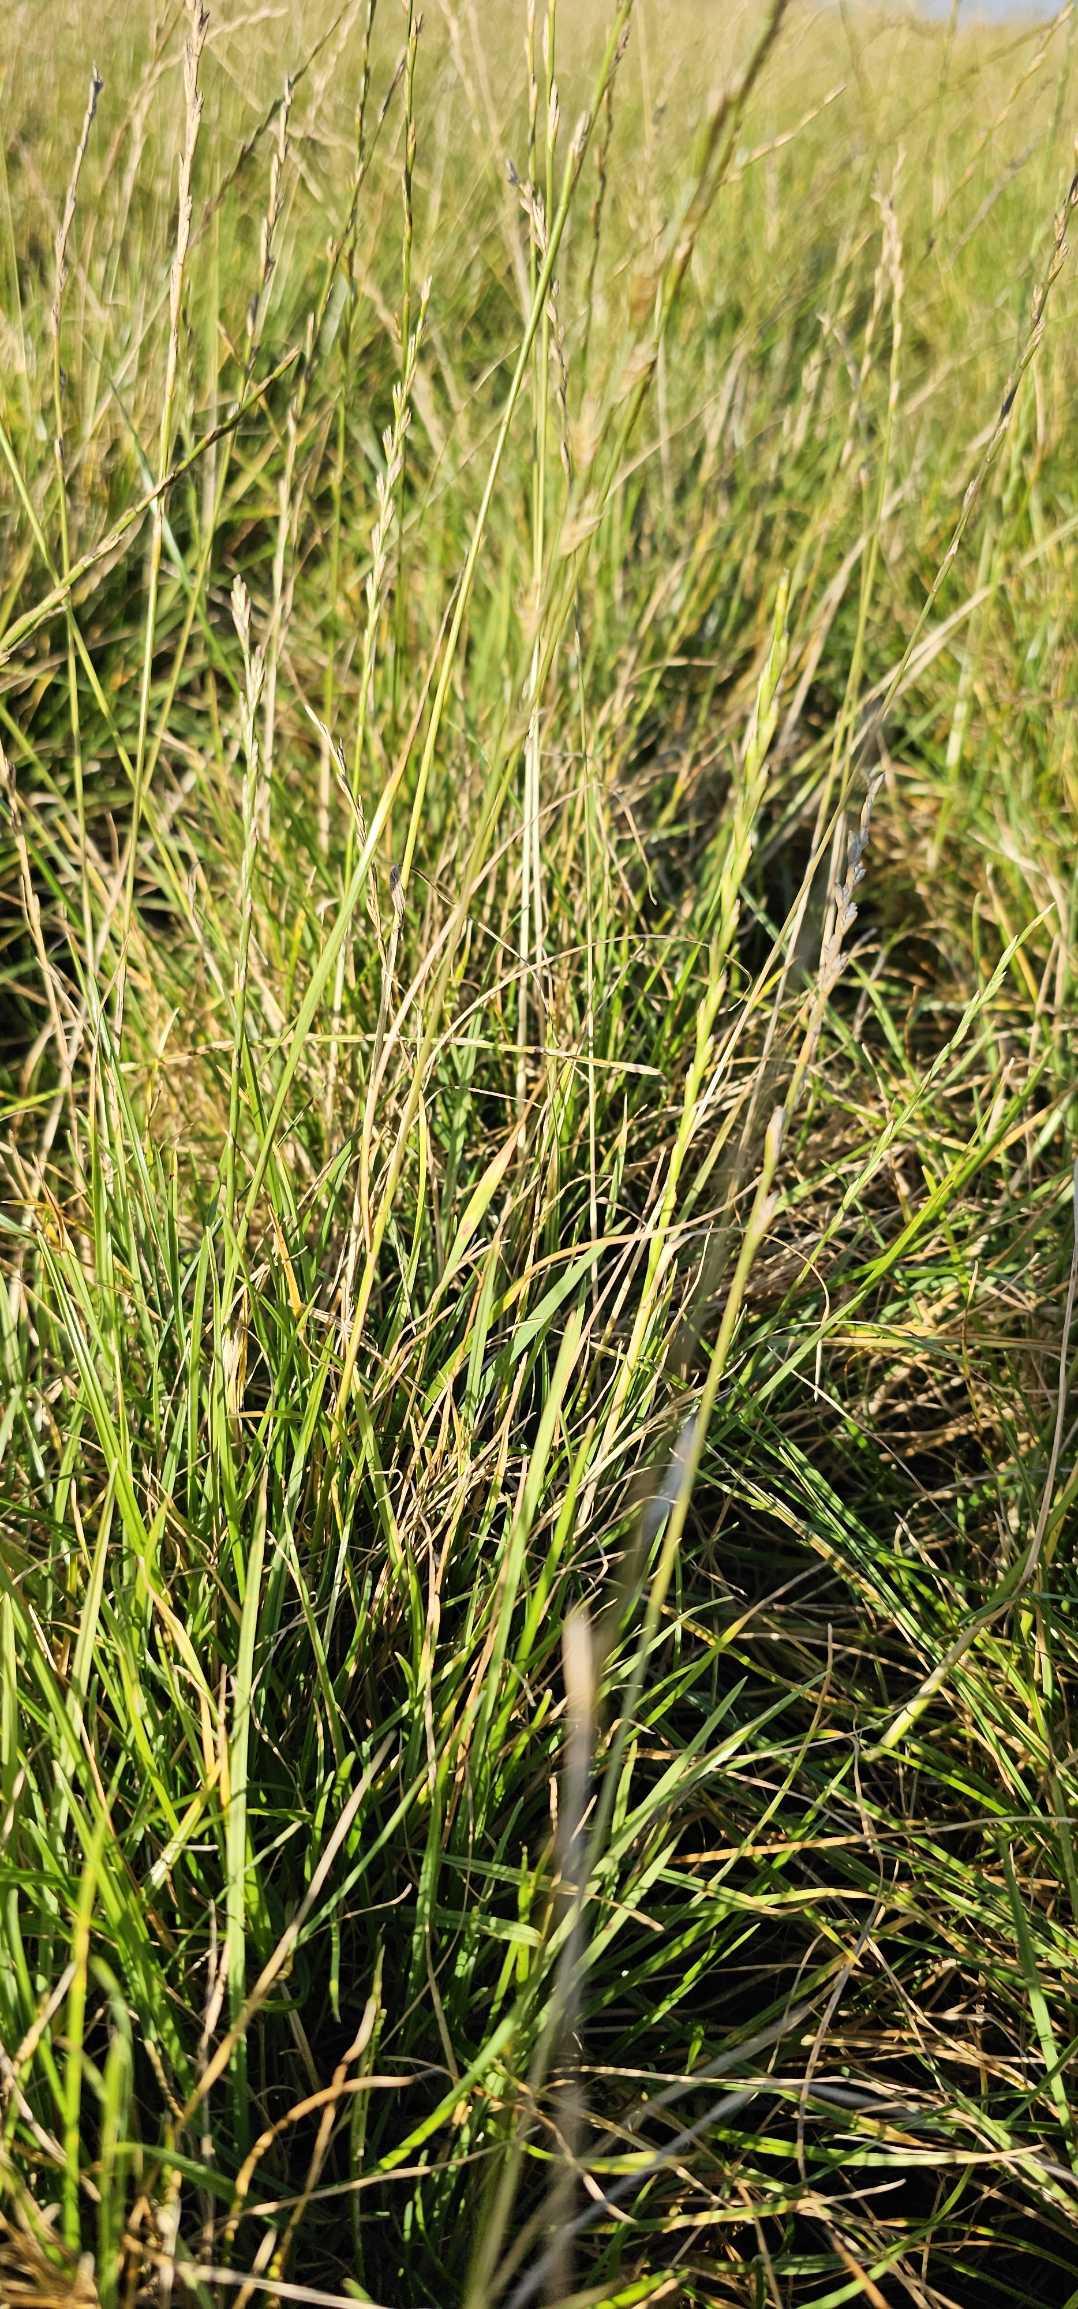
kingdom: Plantae
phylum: Tracheophyta
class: Liliopsida
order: Poales
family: Poaceae
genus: Lolium
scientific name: Lolium perenne
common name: Almindelig rajgræs
